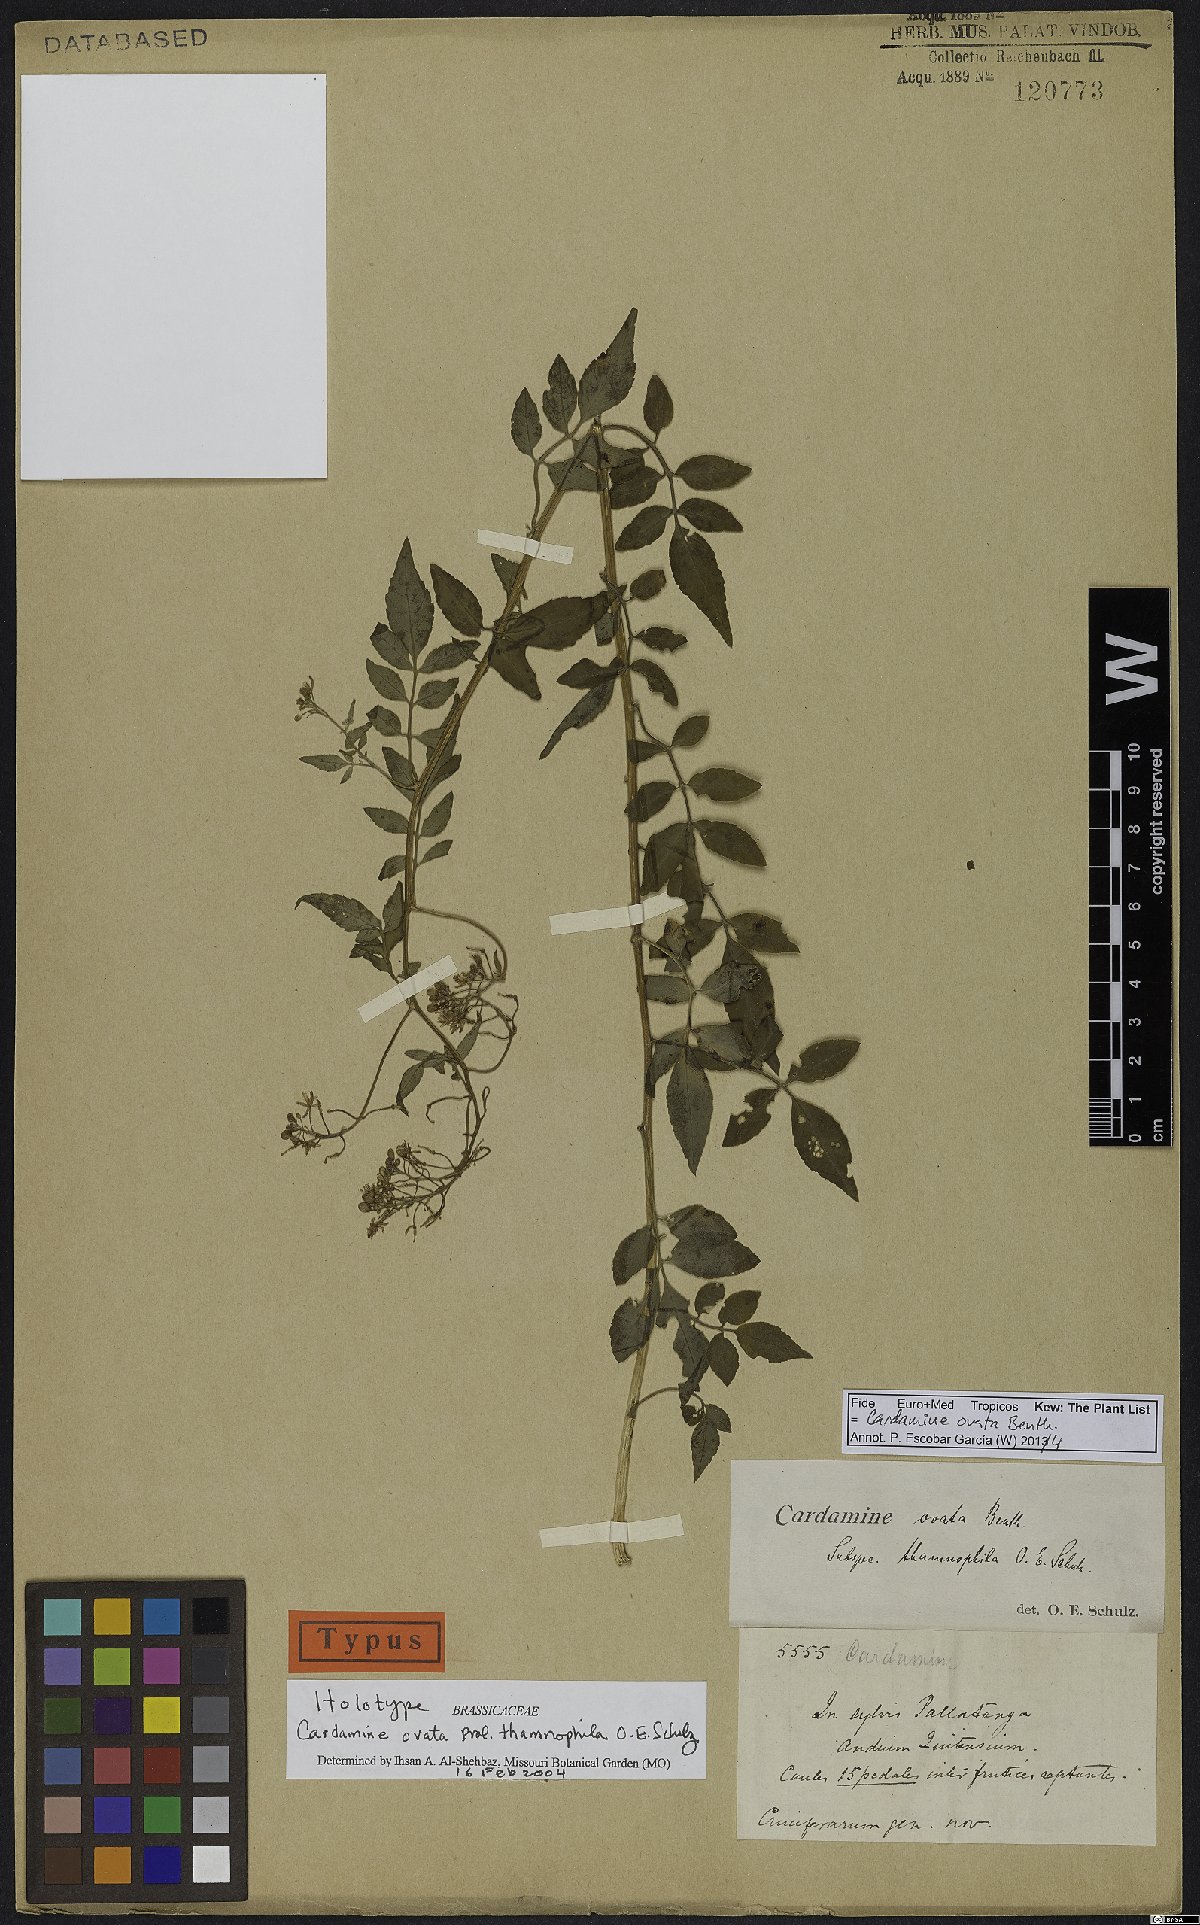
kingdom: Plantae
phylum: Tracheophyta
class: Magnoliopsida
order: Brassicales
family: Brassicaceae
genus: Cardamine
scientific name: Cardamine ovata
